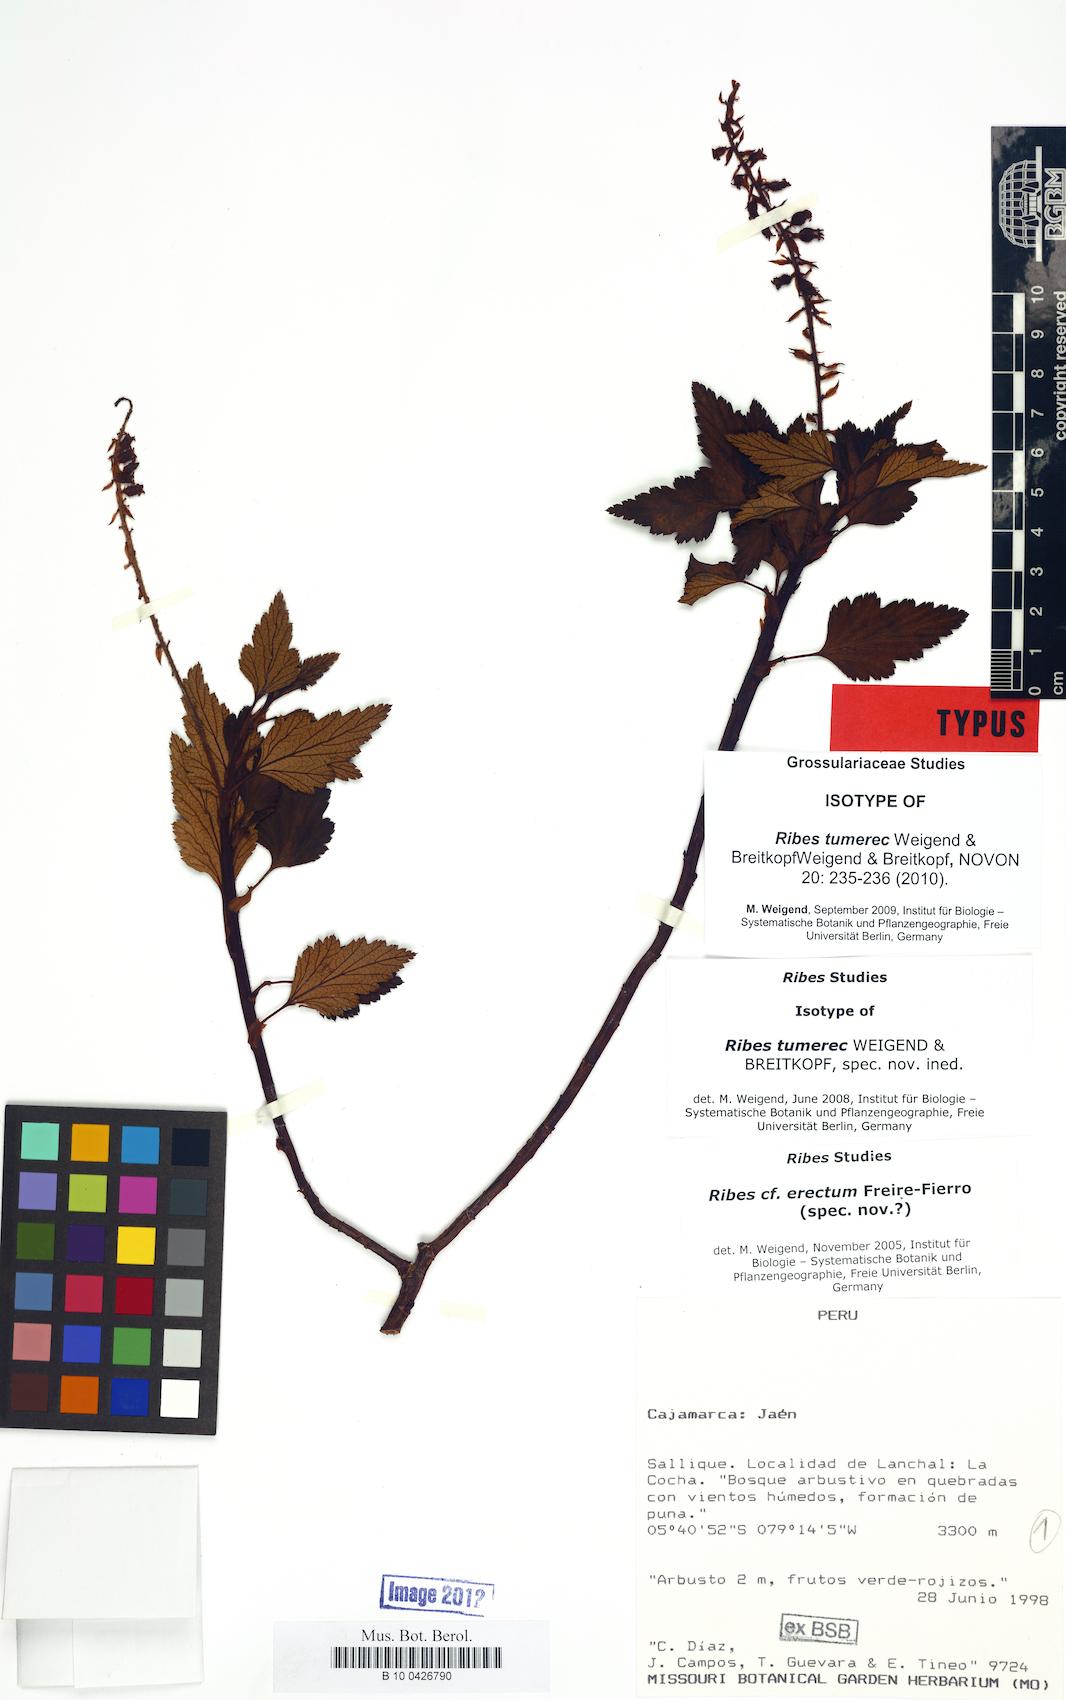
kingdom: Plantae
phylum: Tracheophyta
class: Magnoliopsida
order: Saxifragales
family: Grossulariaceae
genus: Ribes
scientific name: Ribes erectum
